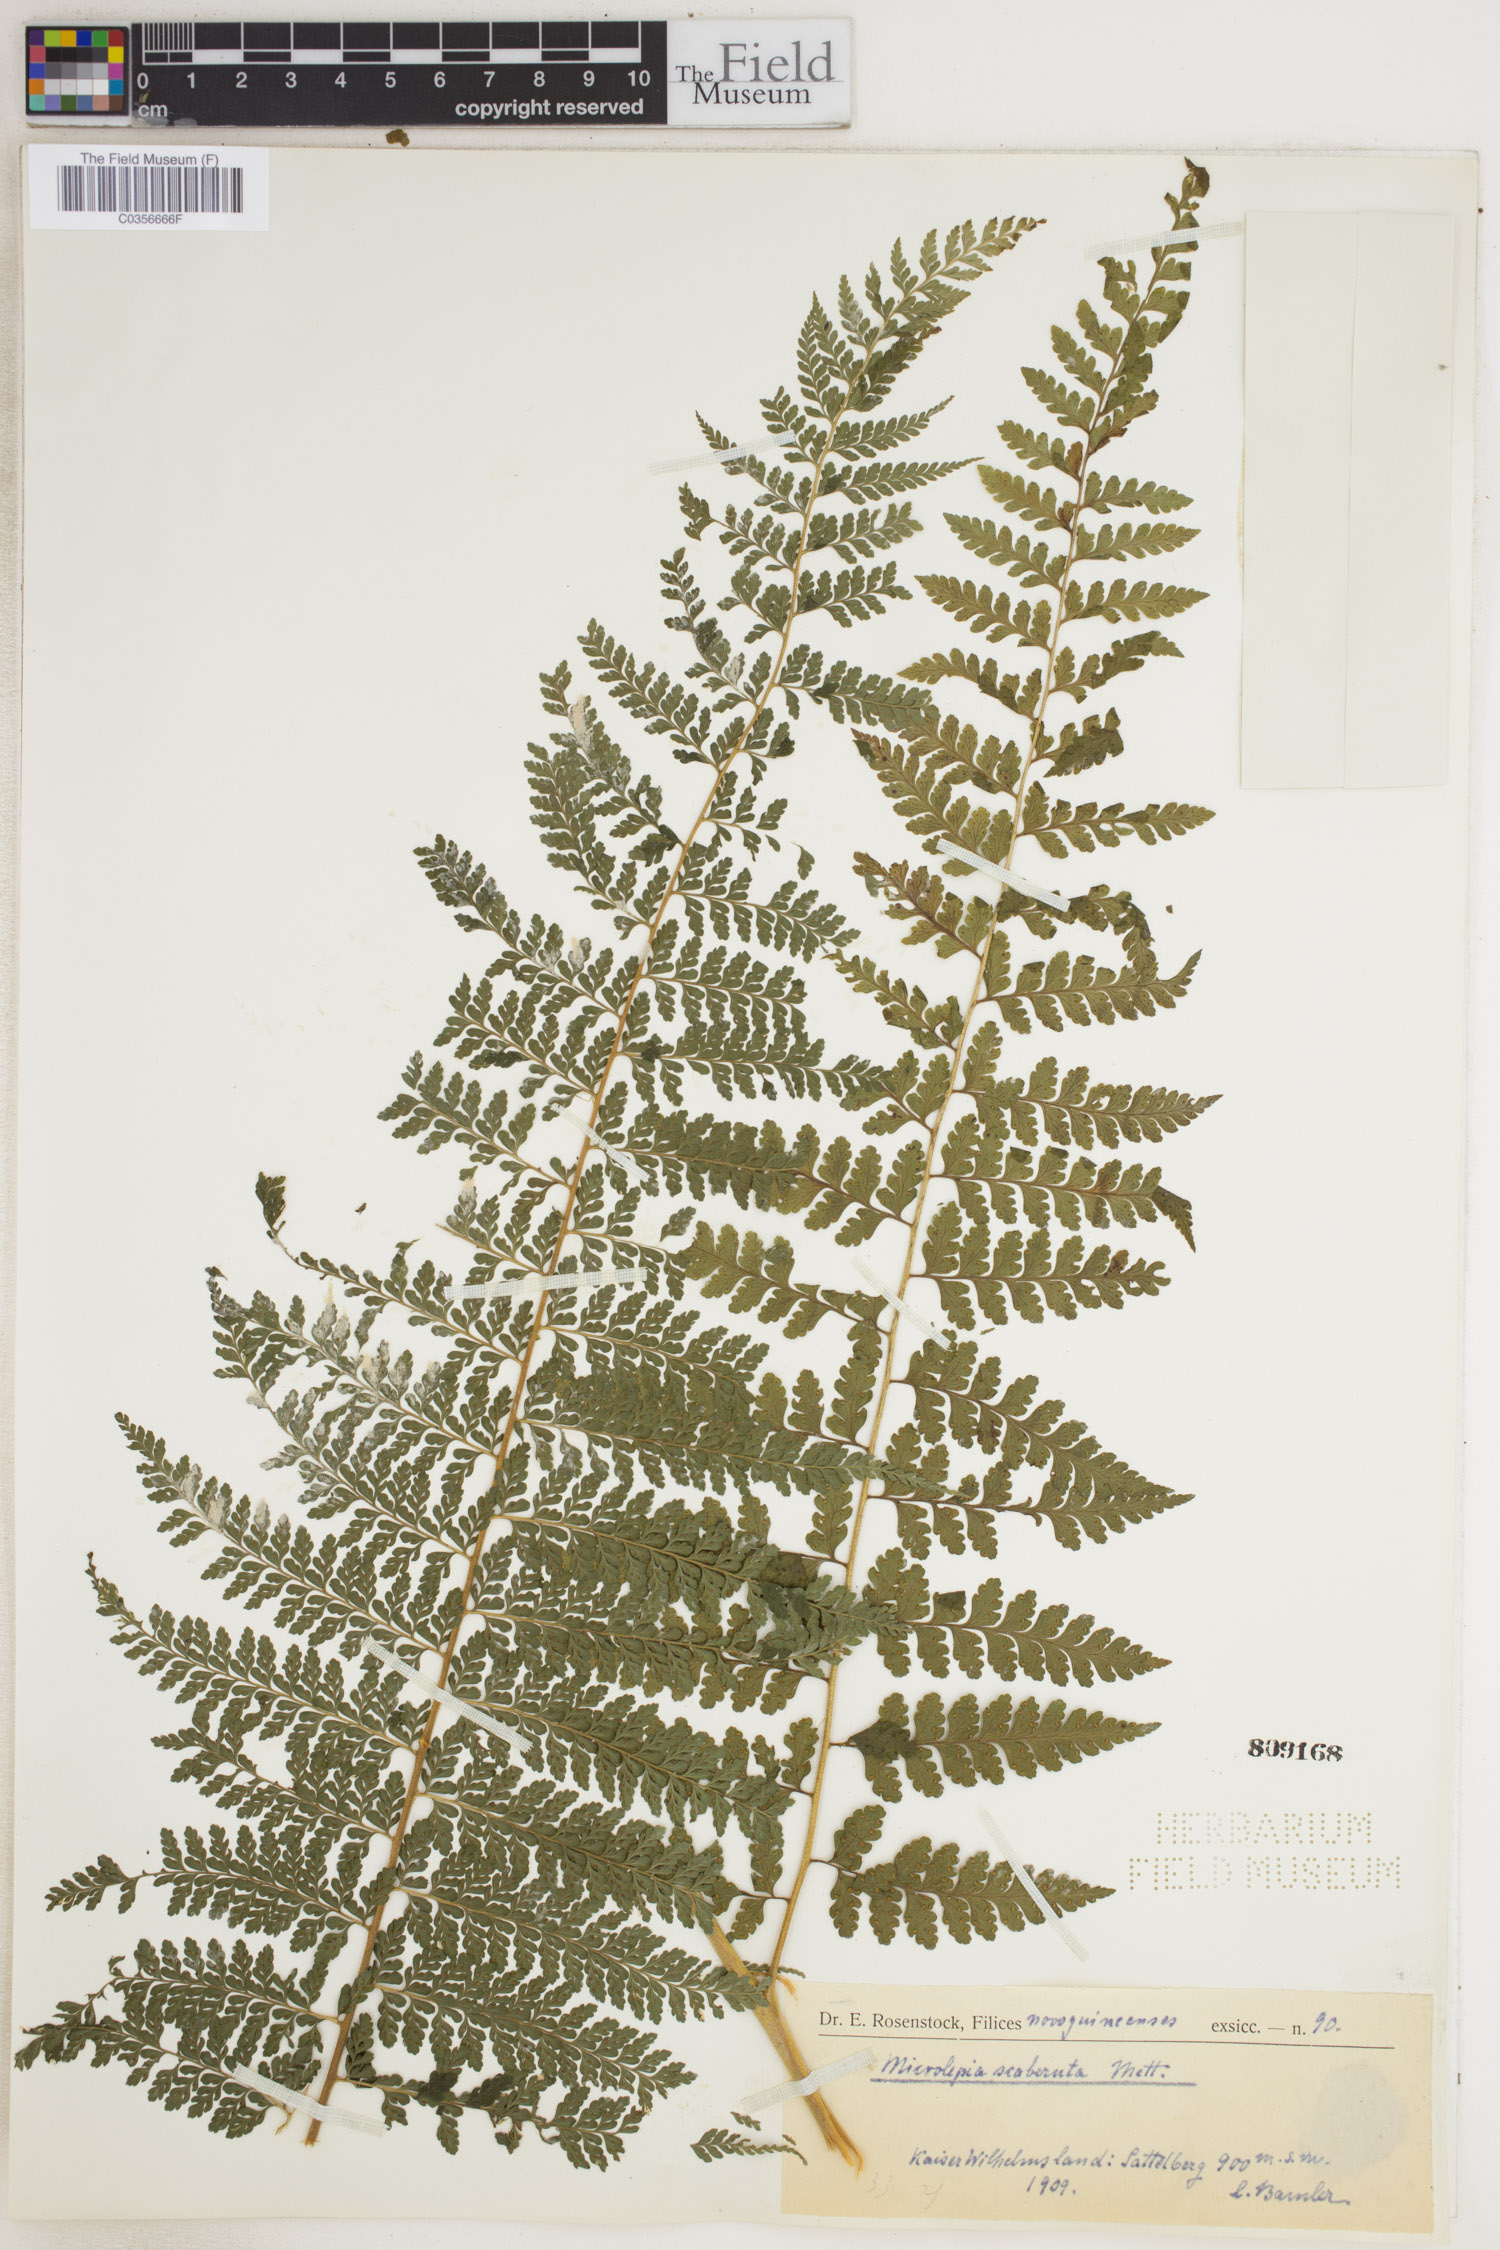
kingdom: Plantae
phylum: Tracheophyta
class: Magnoliopsida
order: Myrtales
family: Melastomataceae
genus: Pleroma
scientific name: Pleroma
